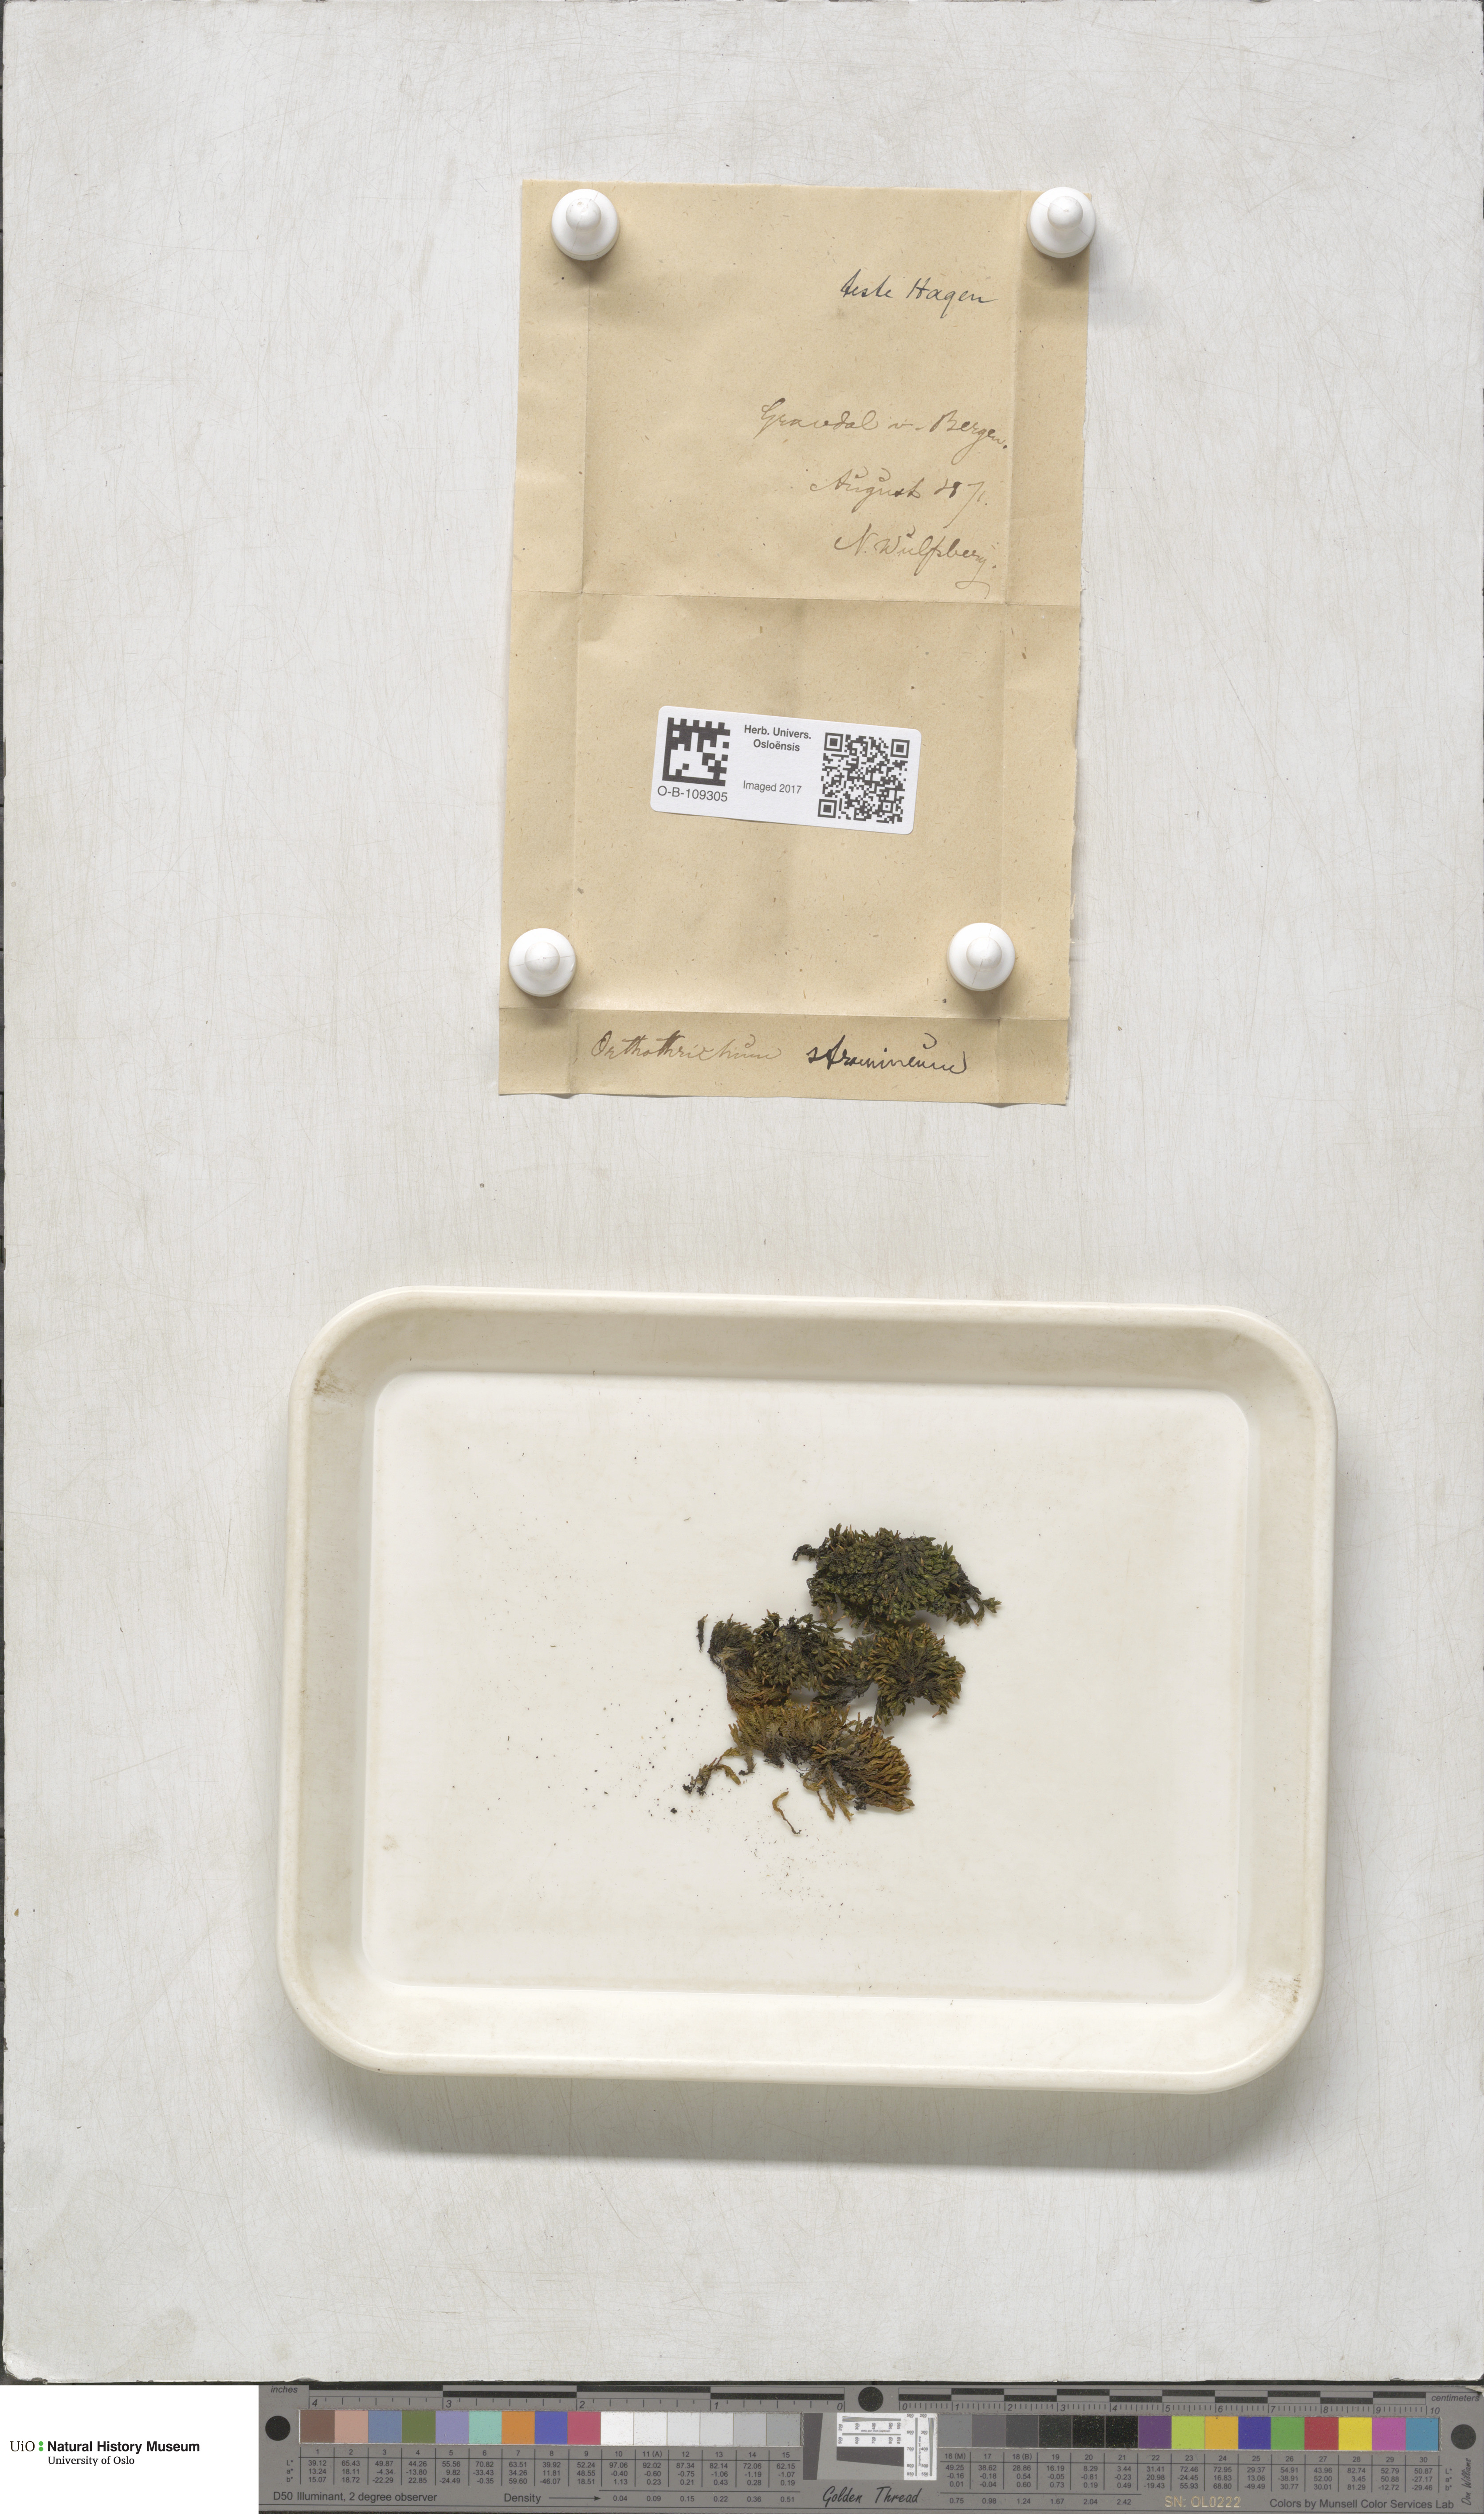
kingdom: Plantae
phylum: Bryophyta
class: Bryopsida
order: Orthotrichales
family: Orthotrichaceae
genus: Orthotrichum
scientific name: Orthotrichum stramineum
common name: Straw bristle-moss
